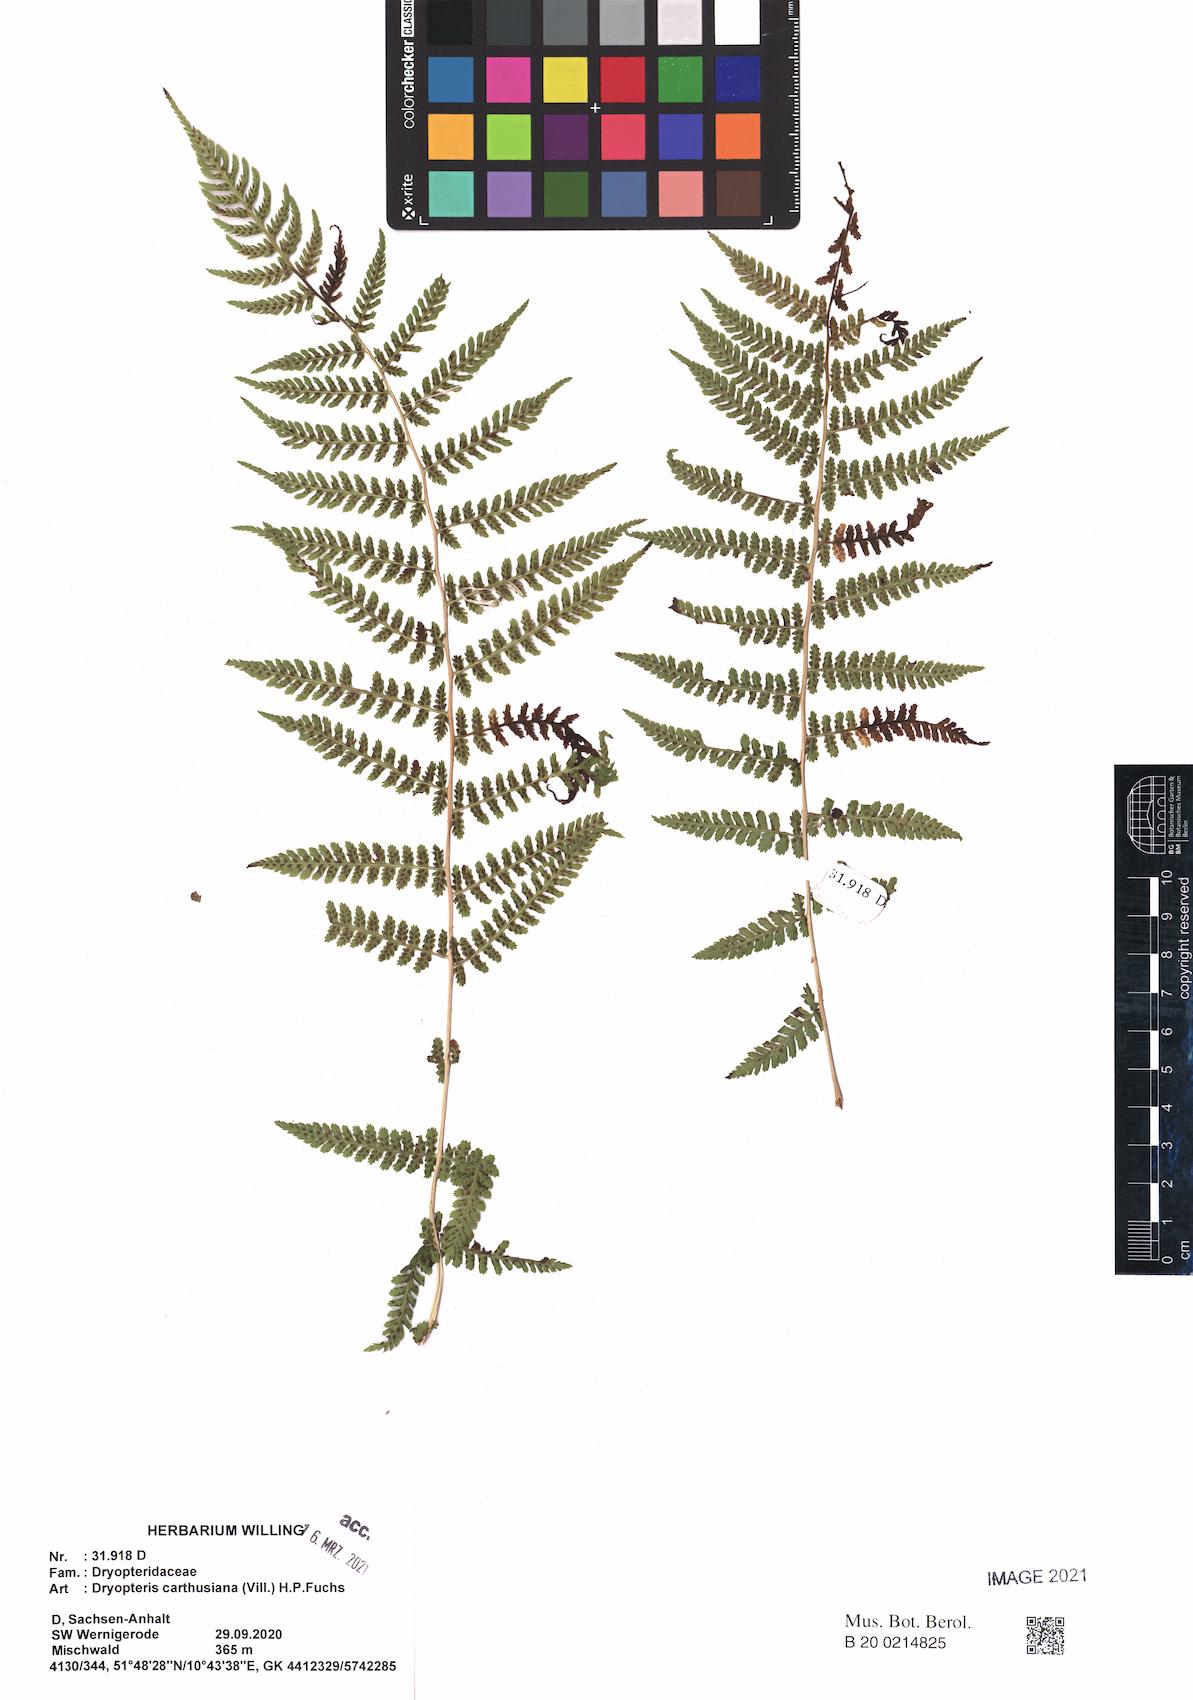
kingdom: Plantae
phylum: Tracheophyta
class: Polypodiopsida
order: Polypodiales
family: Athyriaceae
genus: Athyrium
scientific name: Athyrium filix-femina
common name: Lady fern
